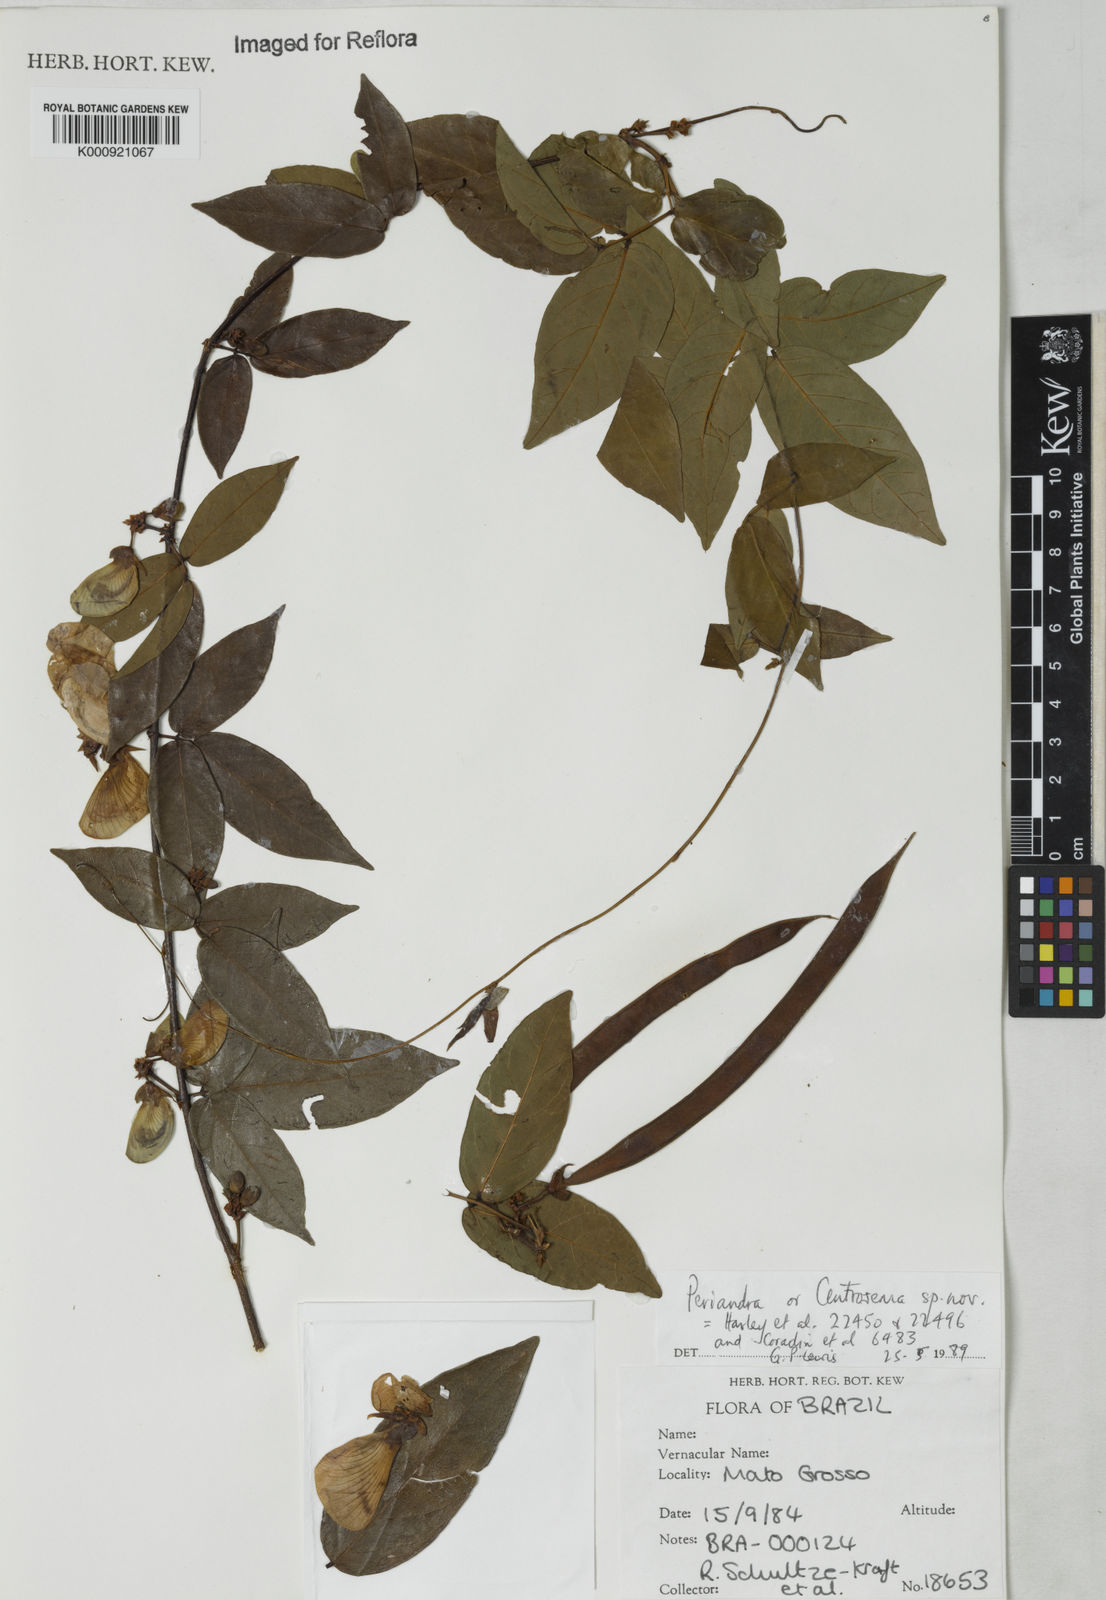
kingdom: Plantae
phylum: Tracheophyta
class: Magnoliopsida
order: Fabales
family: Fabaceae
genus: Periandra
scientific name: Periandra
